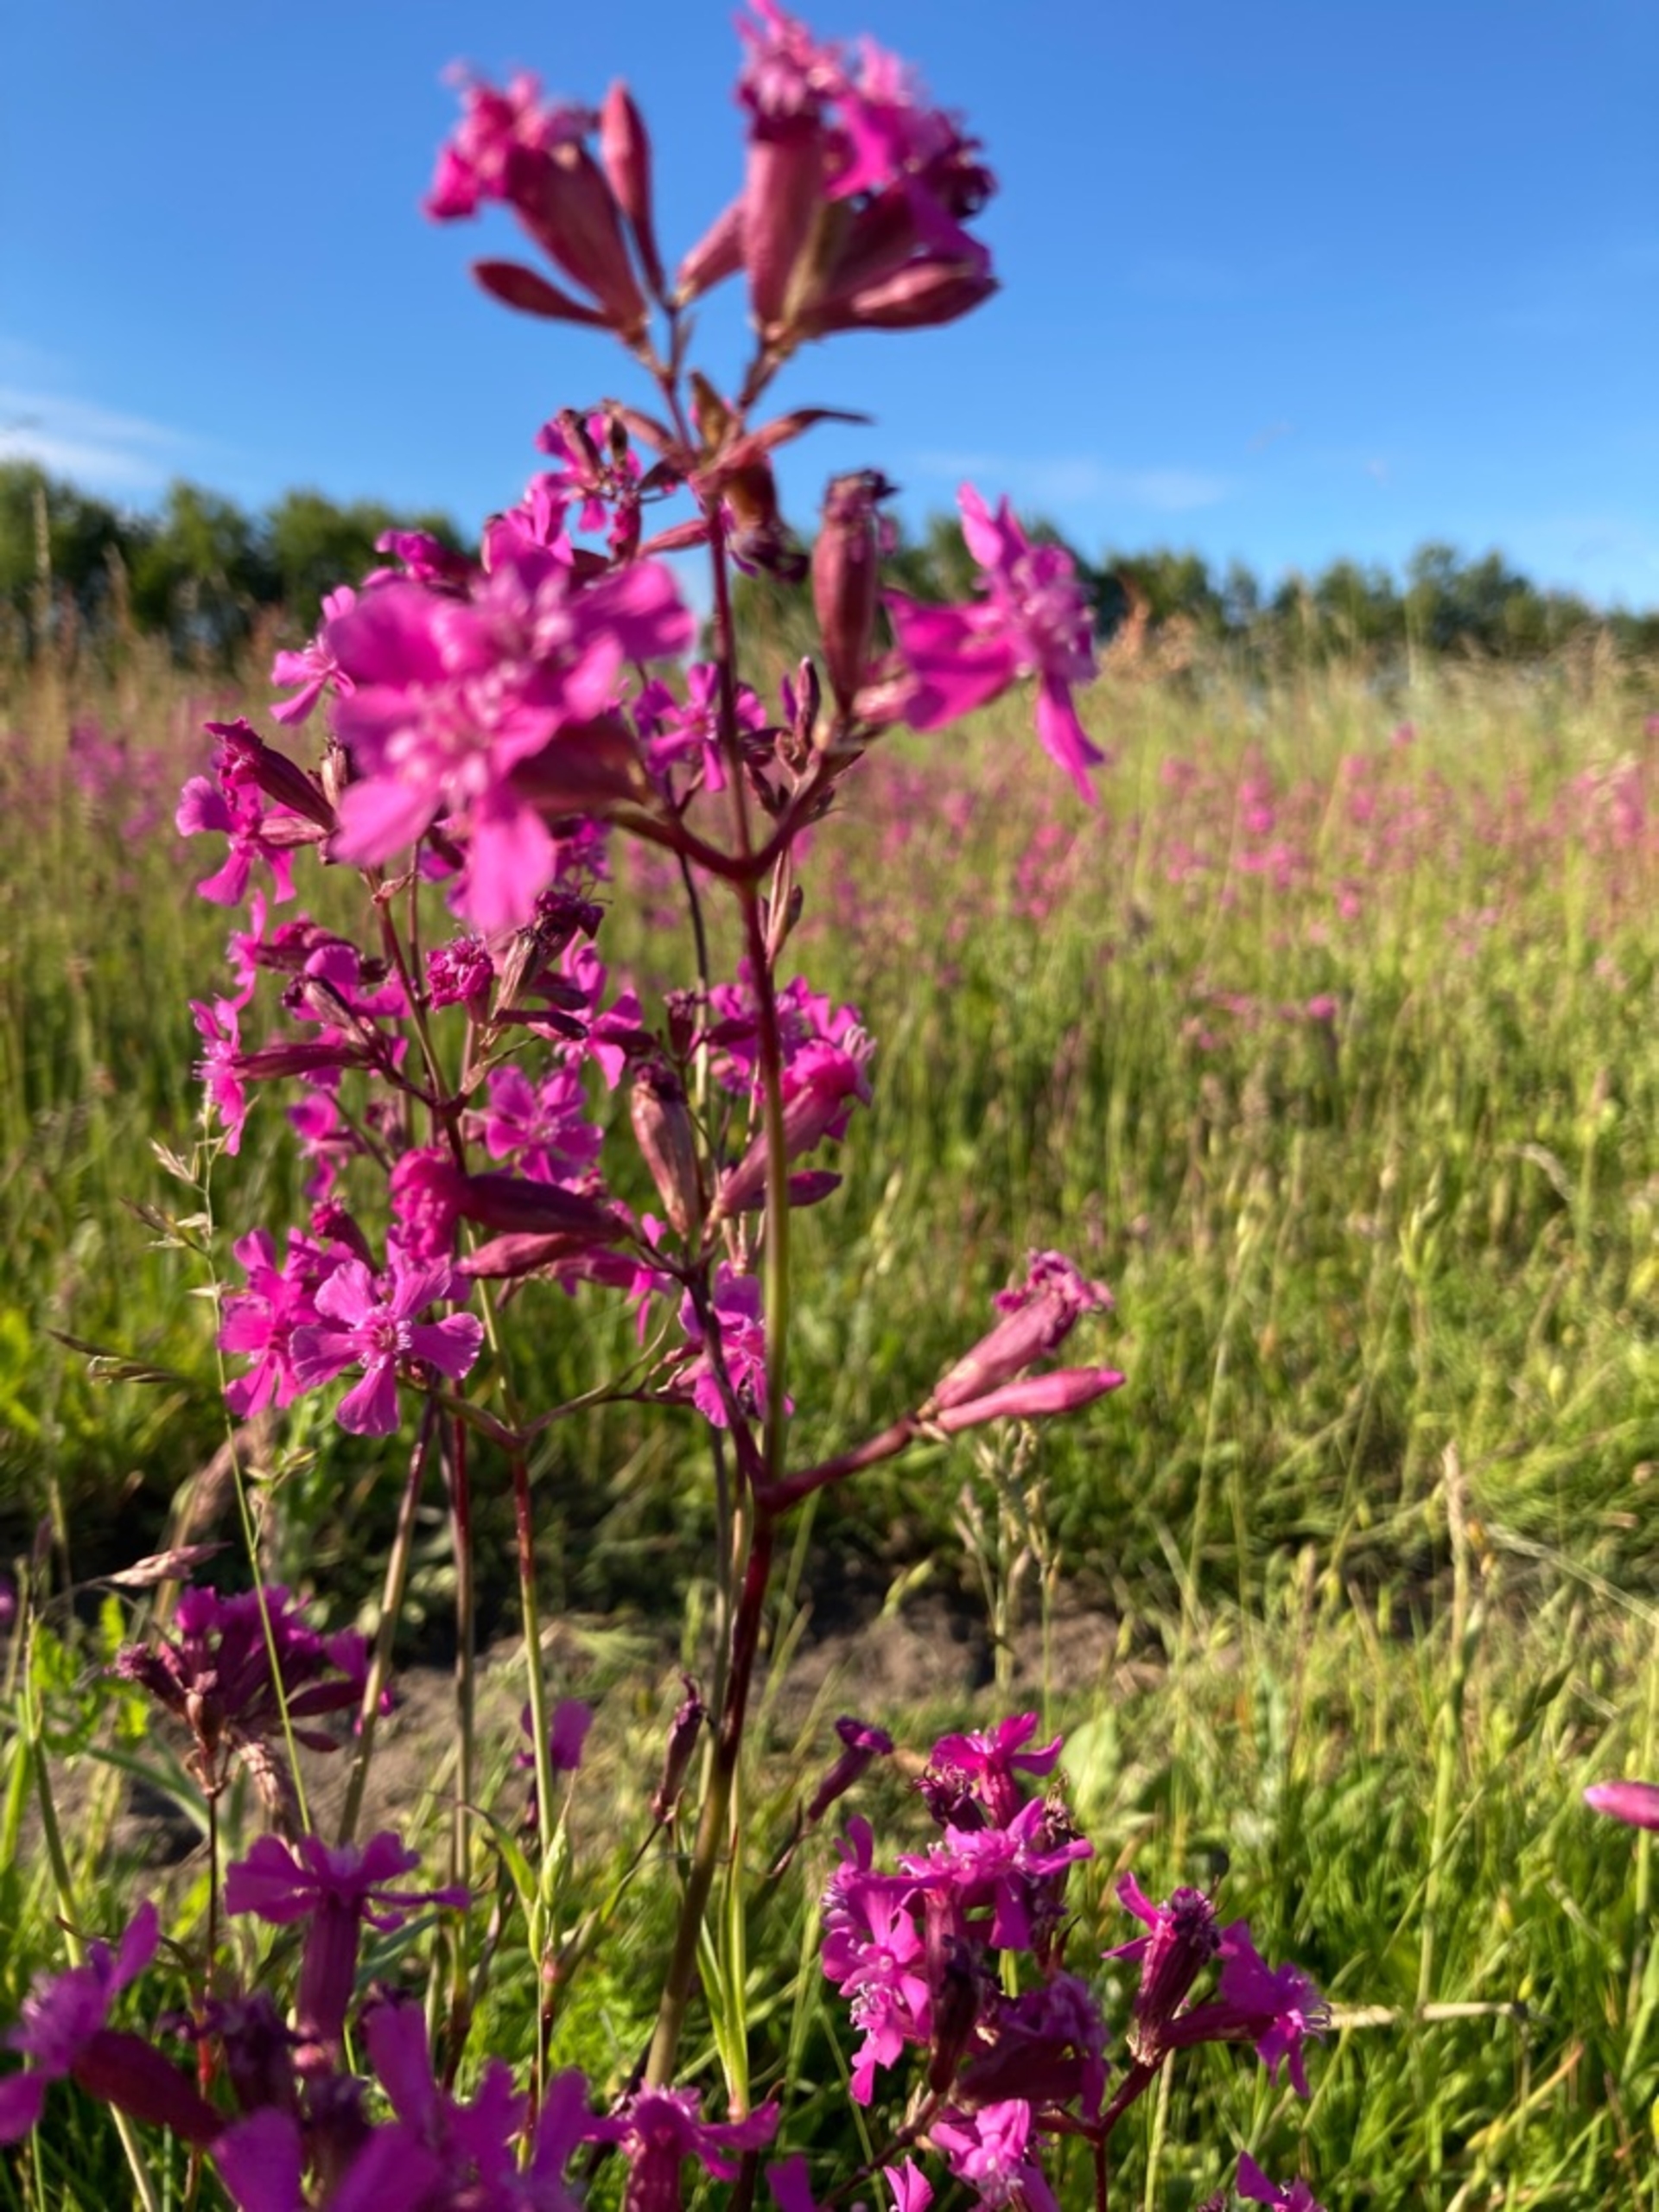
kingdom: Plantae
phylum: Tracheophyta
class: Magnoliopsida
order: Caryophyllales
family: Caryophyllaceae
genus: Viscaria
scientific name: Viscaria vulgaris
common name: Tjærenellike
